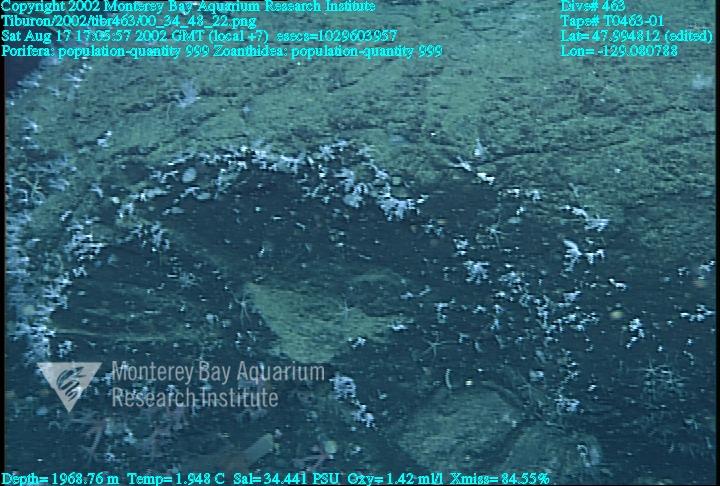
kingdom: Animalia
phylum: Porifera
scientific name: Porifera
